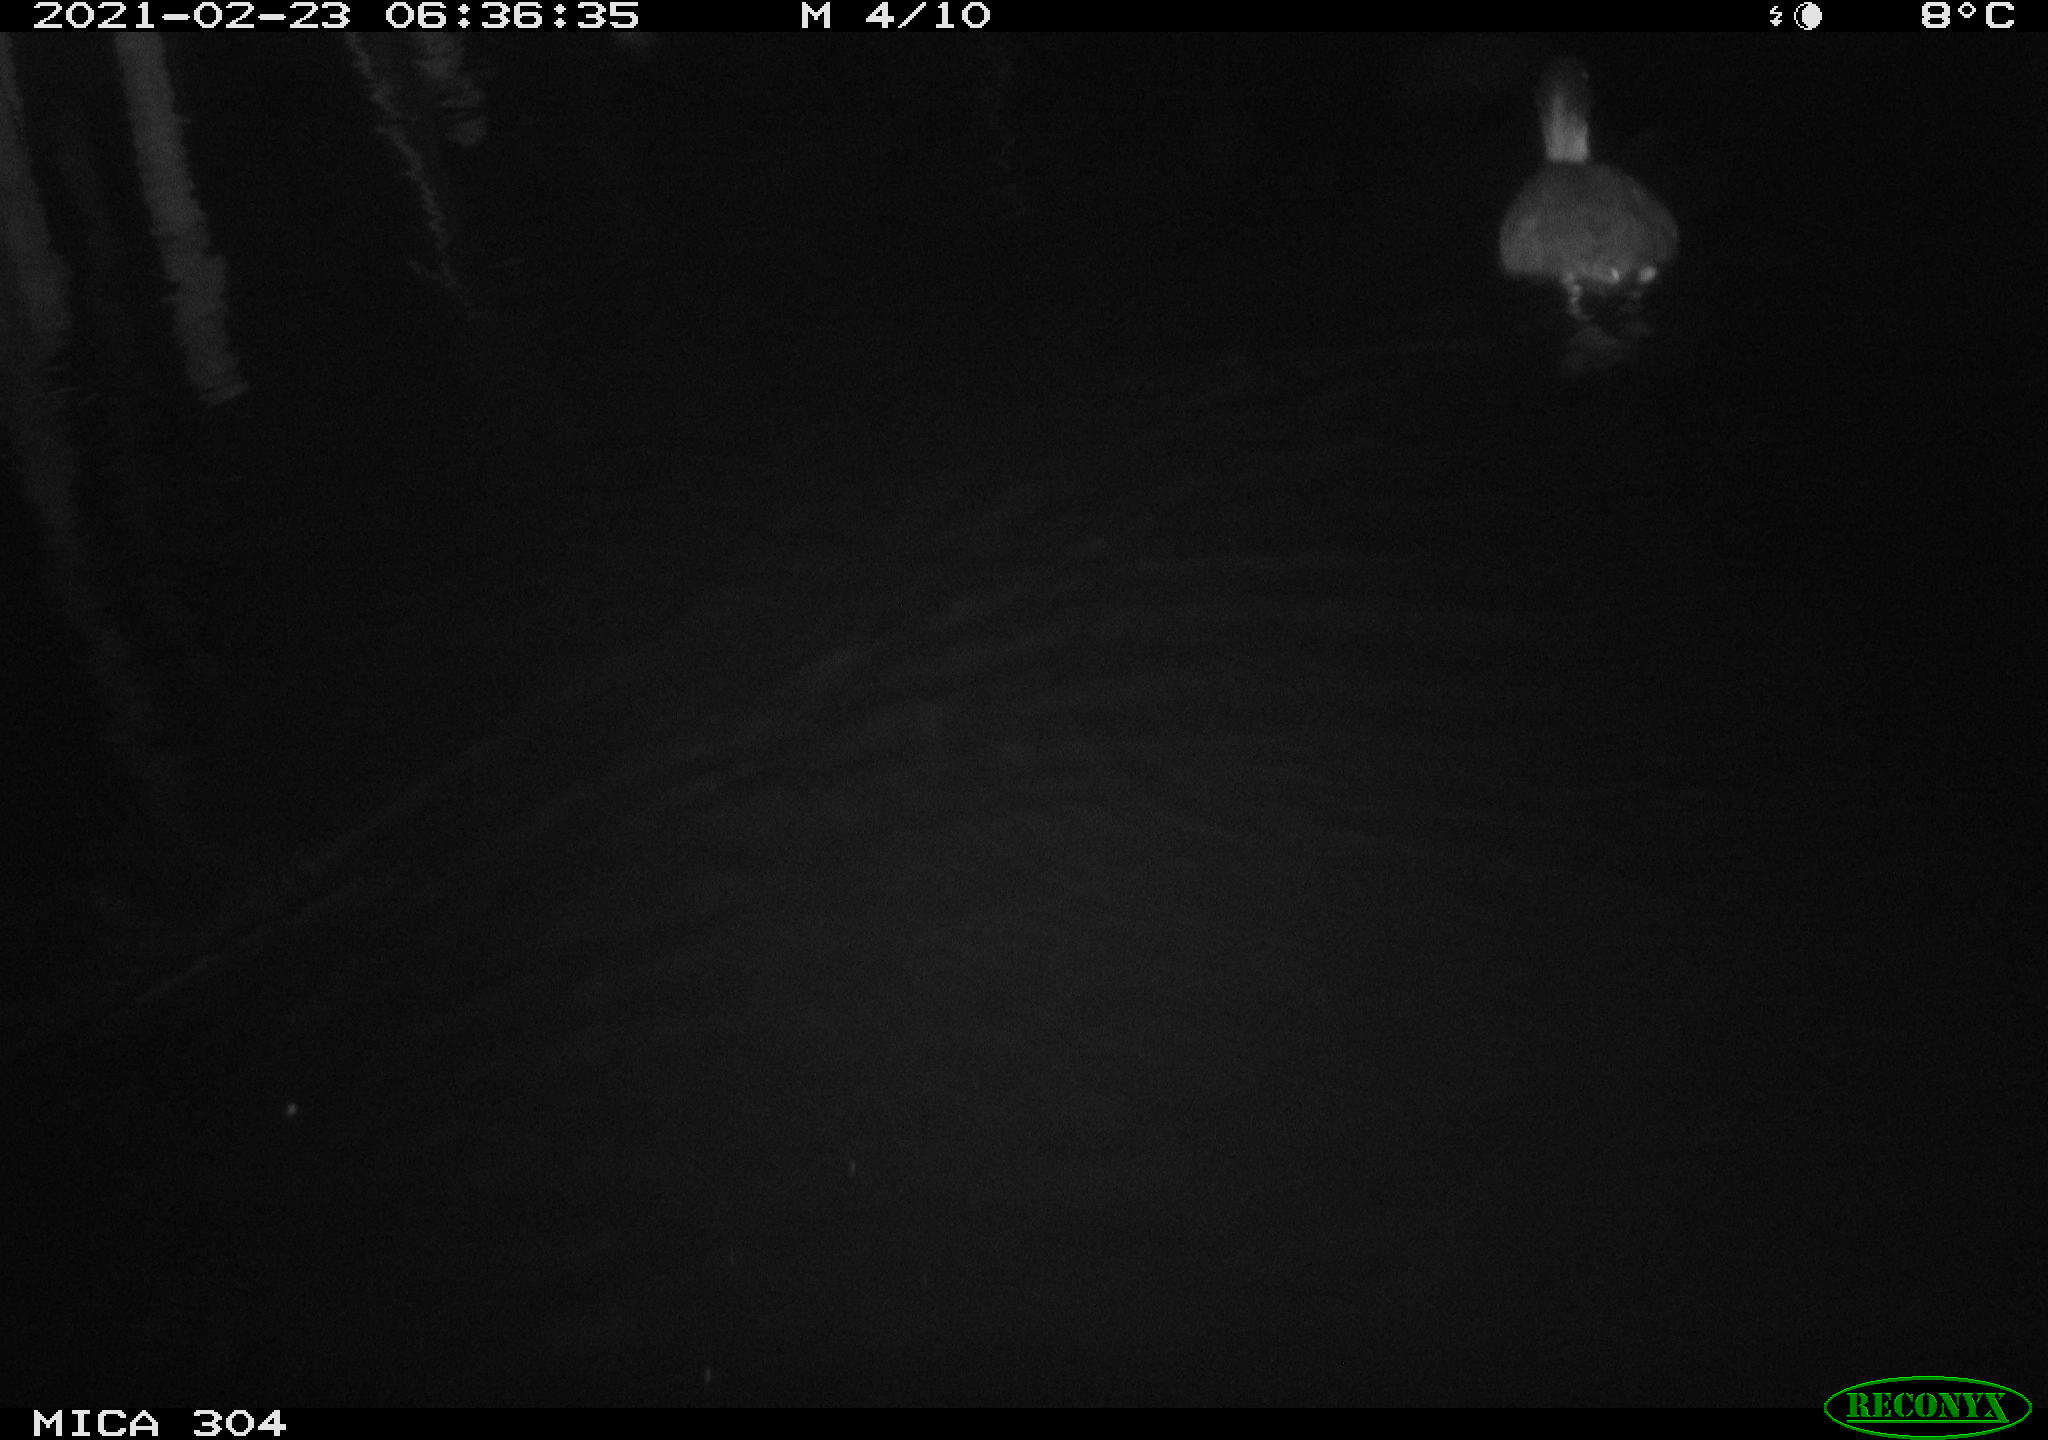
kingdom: Animalia
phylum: Chordata
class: Aves
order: Gruiformes
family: Rallidae
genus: Fulica
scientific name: Fulica atra
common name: Eurasian coot
